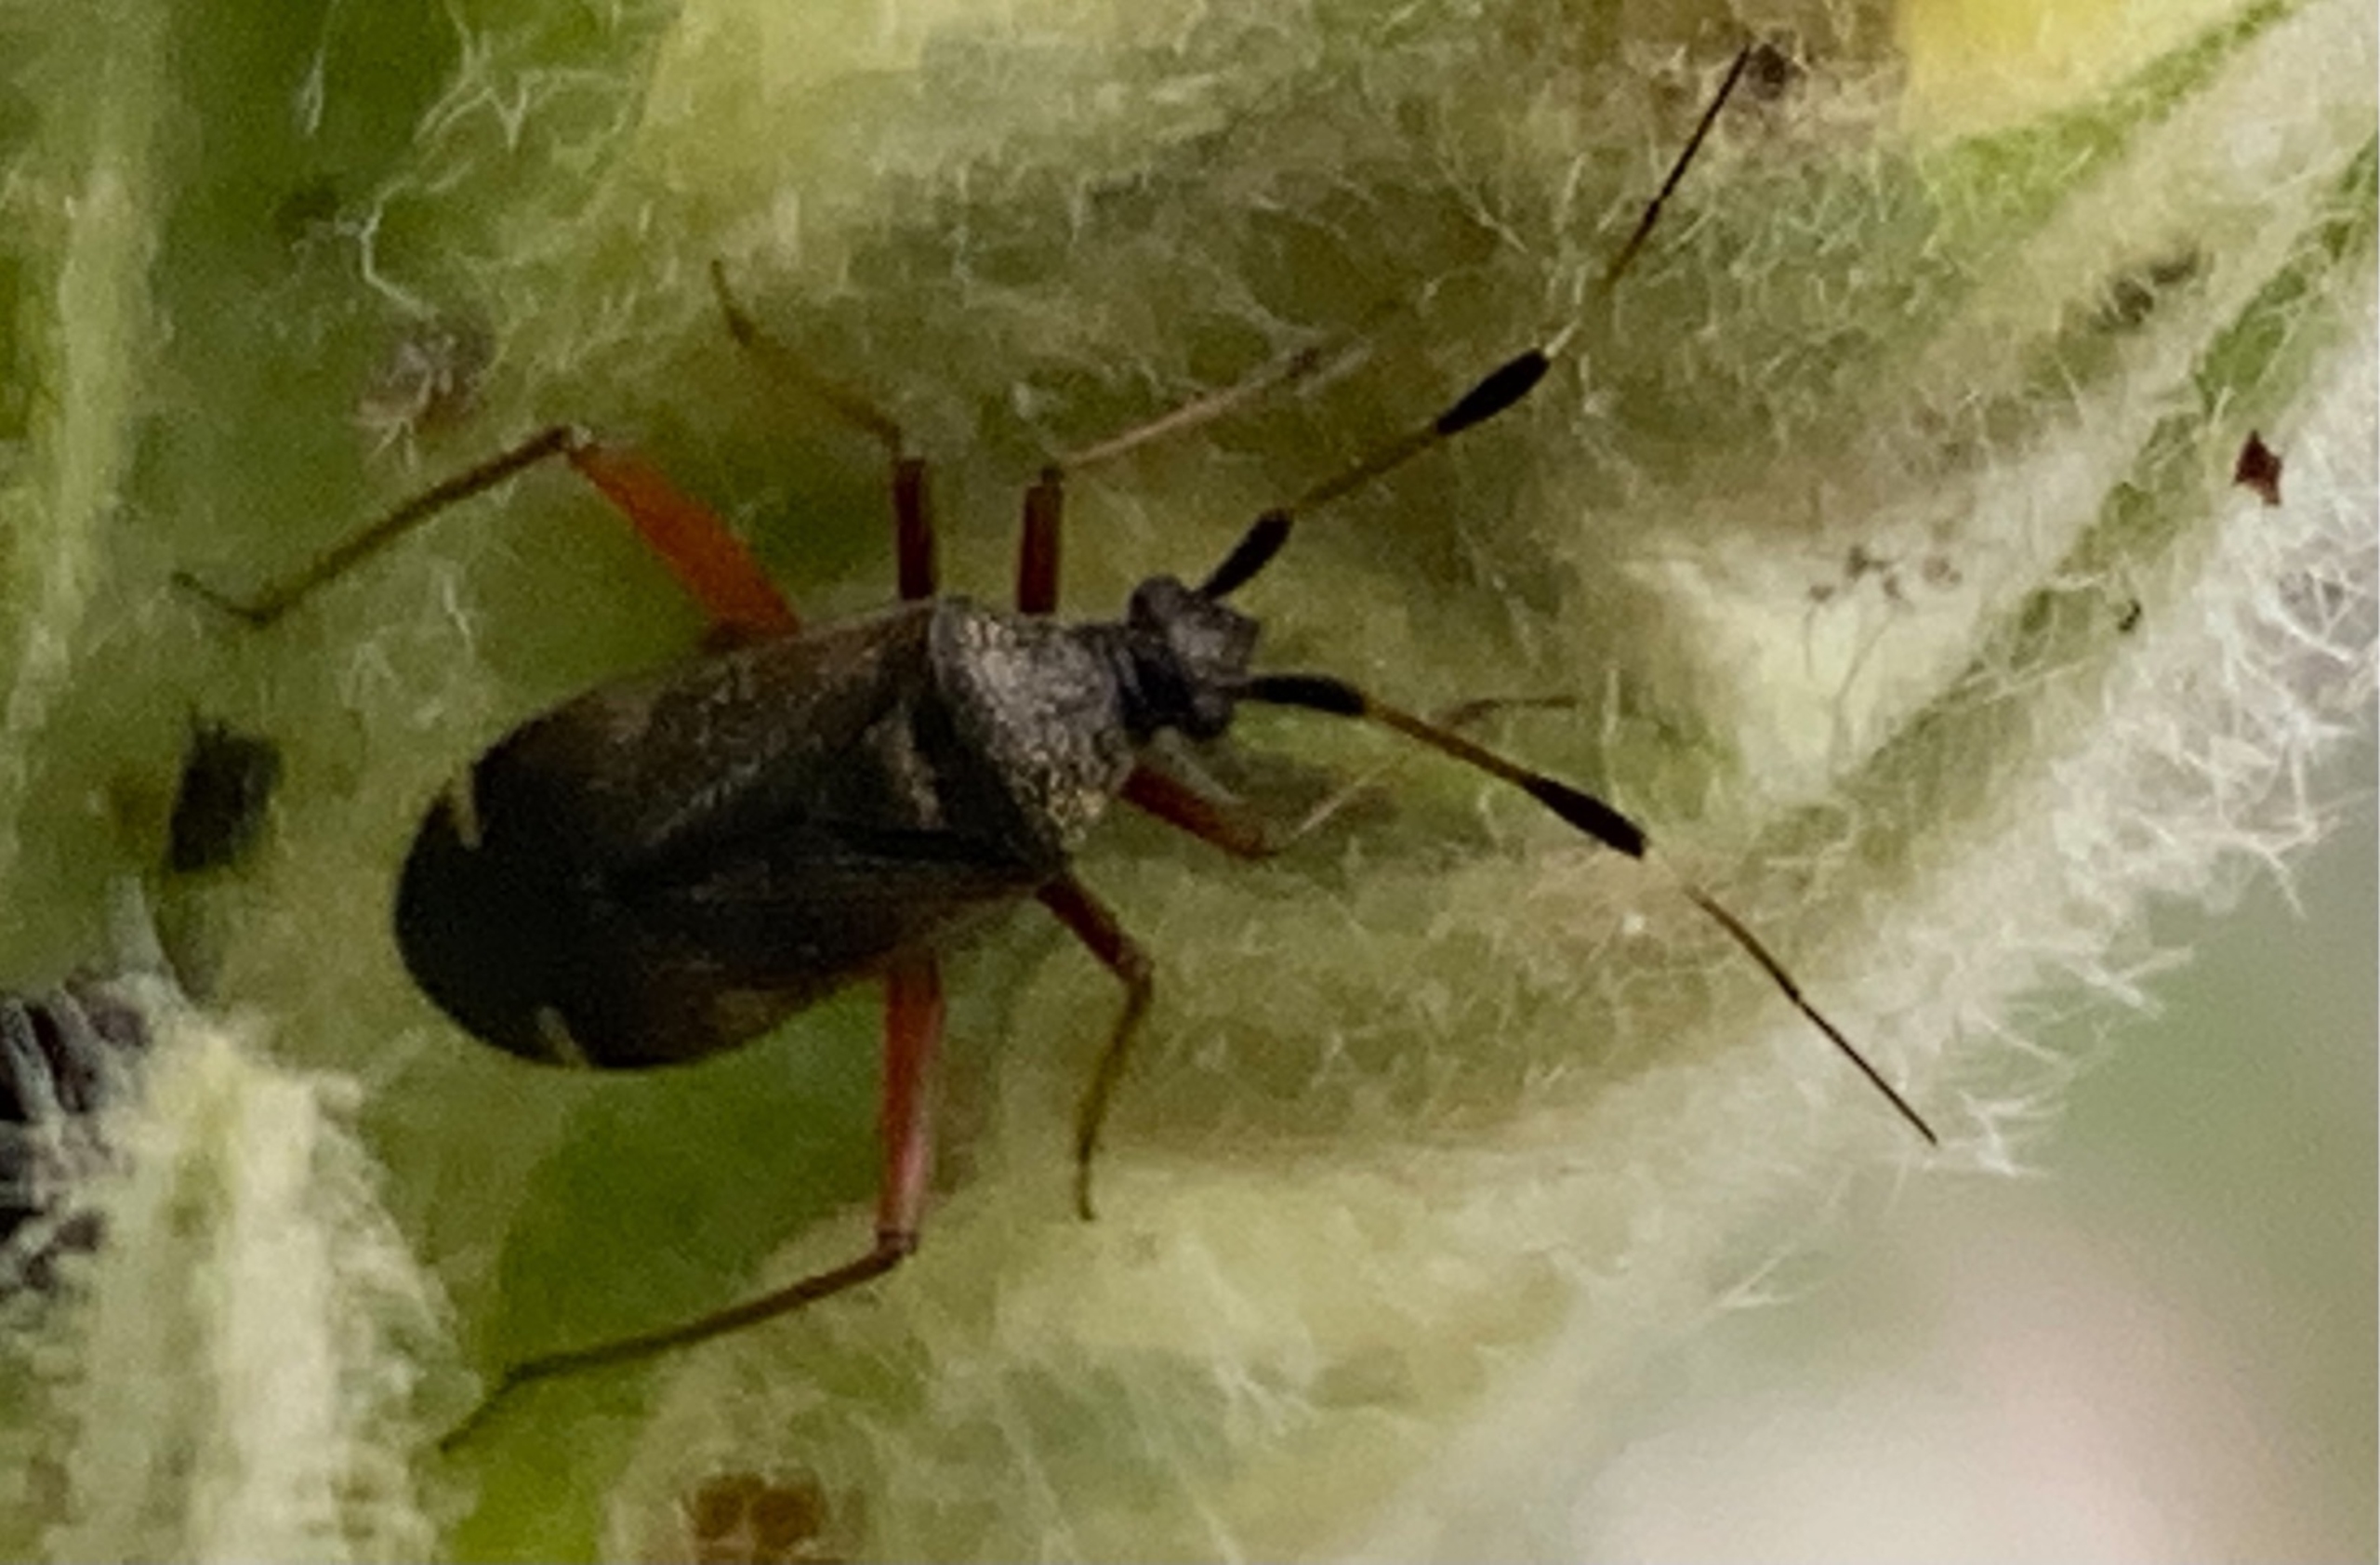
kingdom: Animalia
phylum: Arthropoda
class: Insecta
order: Hemiptera
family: Miridae
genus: Closterotomus
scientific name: Closterotomus biclavatus
